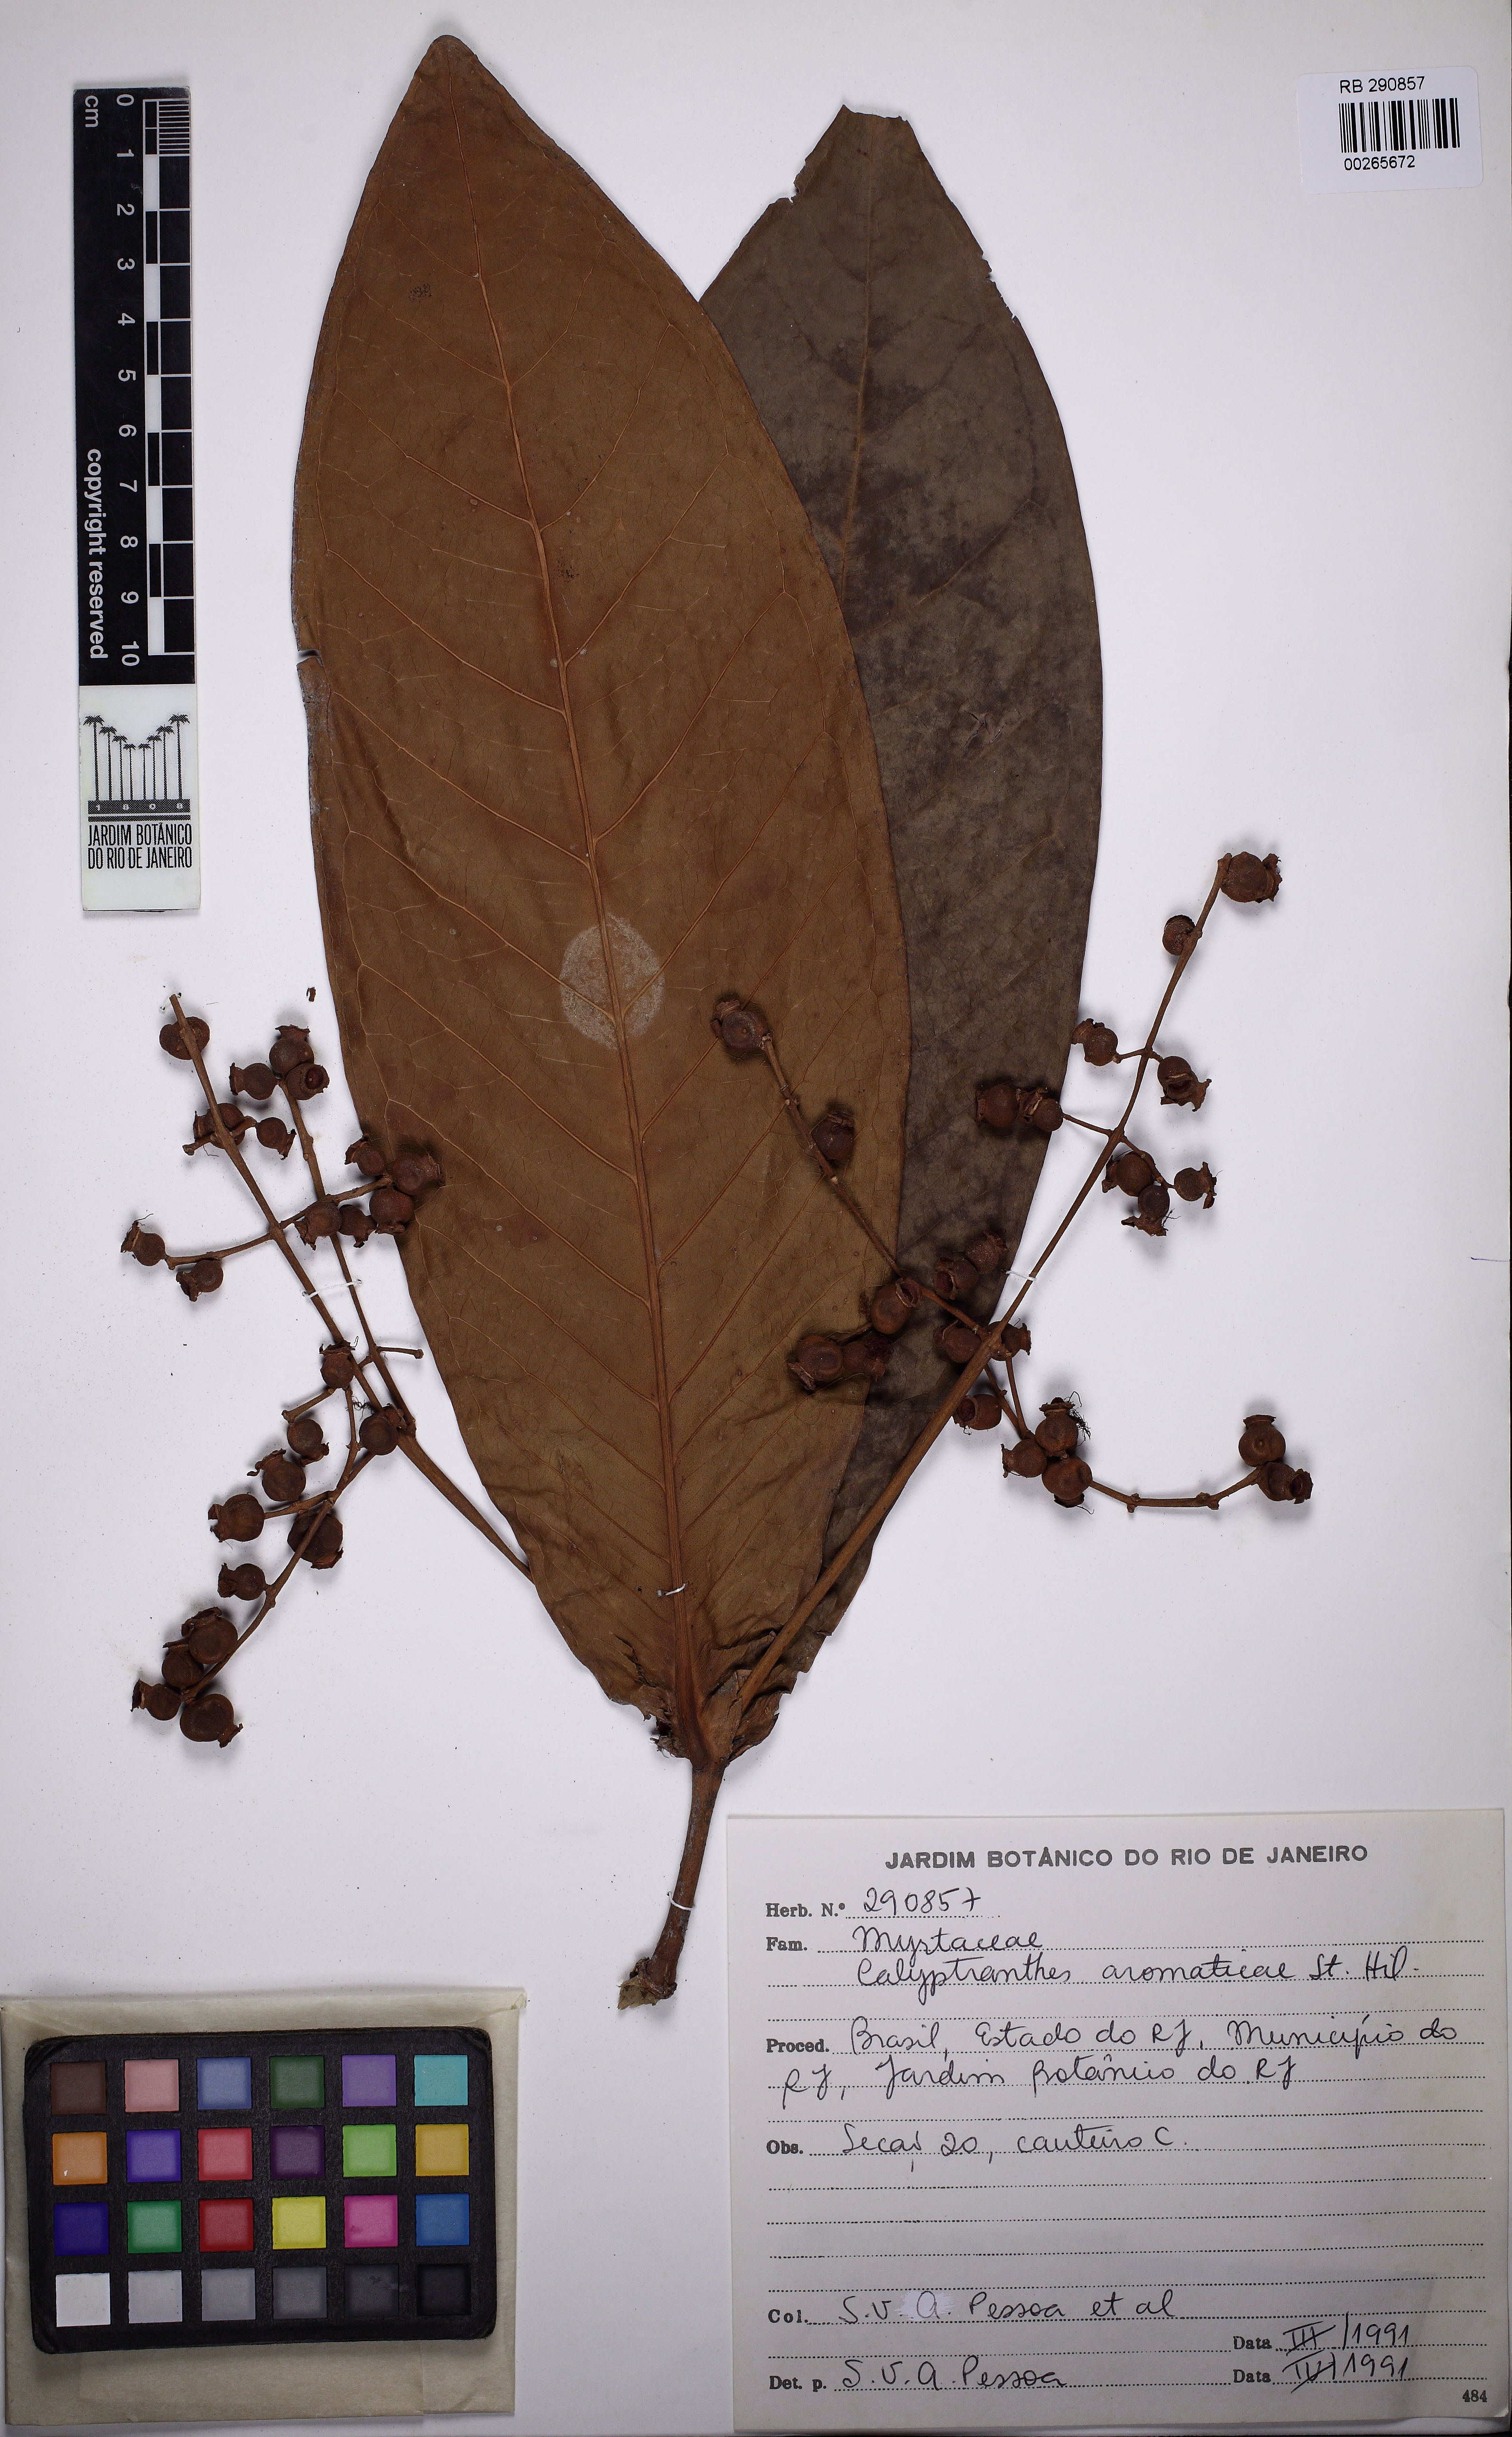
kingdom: Plantae
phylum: Tracheophyta
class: Magnoliopsida
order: Myrtales
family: Myrtaceae
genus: Myrcia
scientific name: Myrcia carioca
